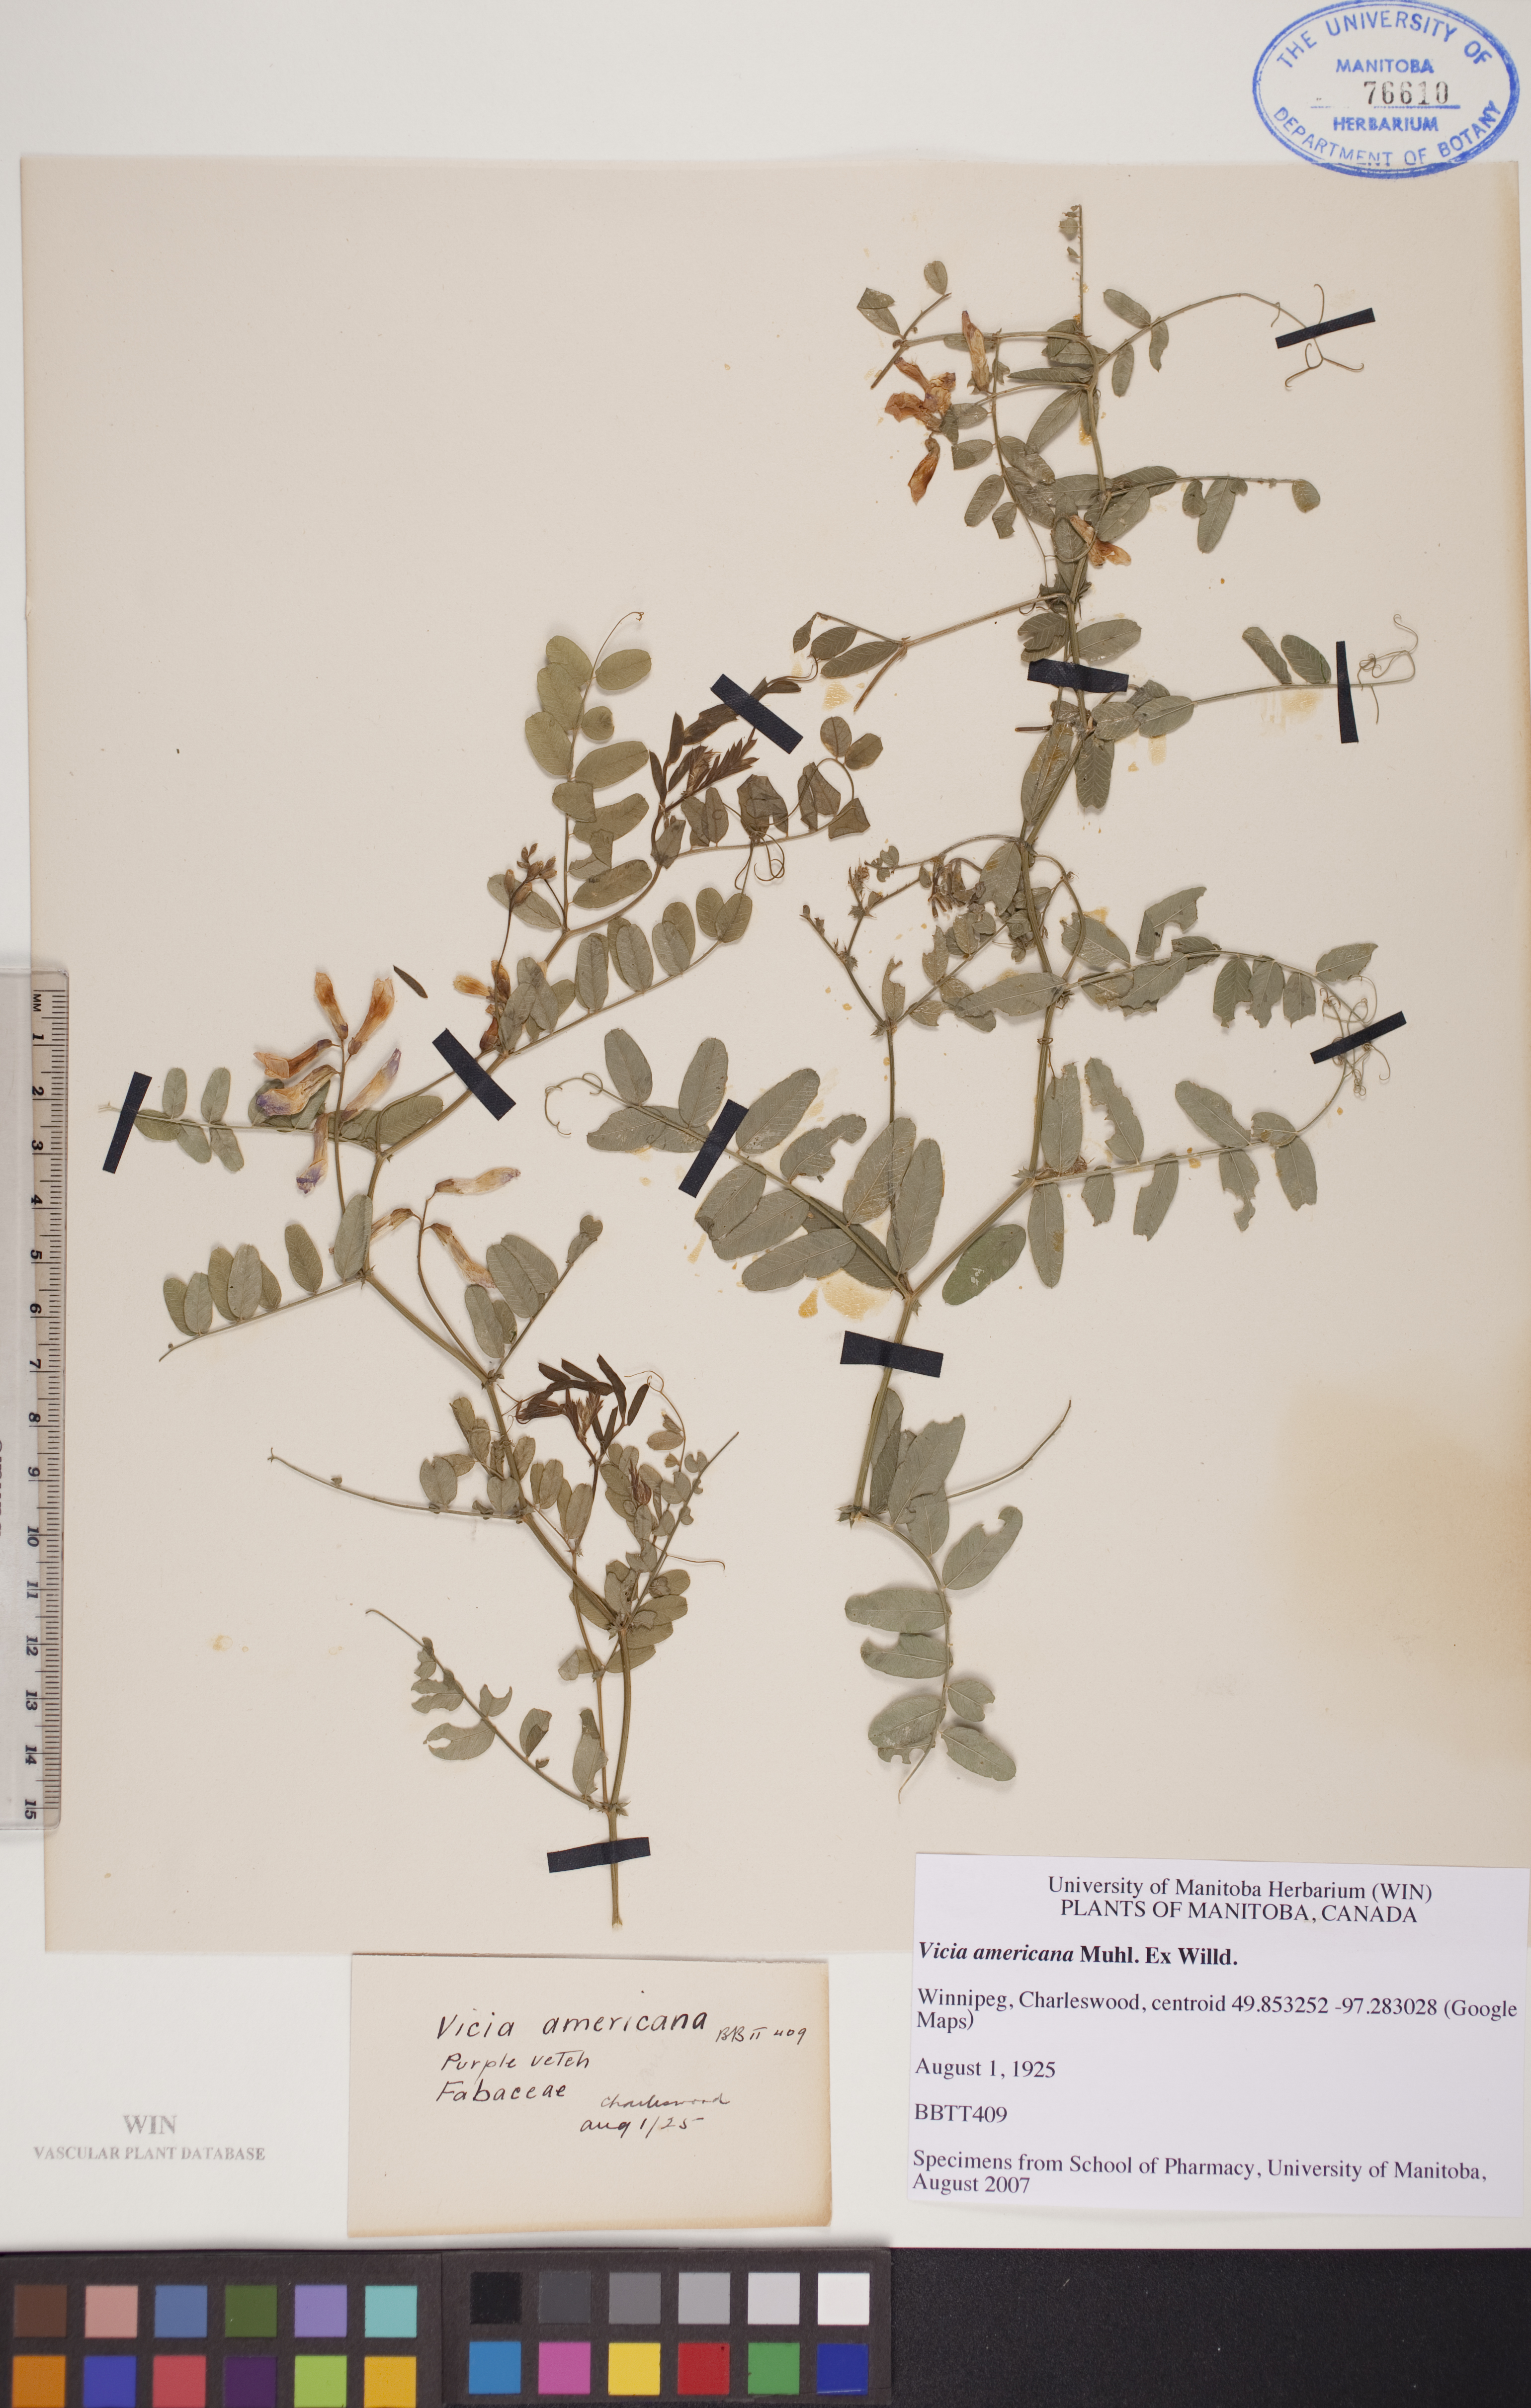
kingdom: Plantae
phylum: Tracheophyta
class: Magnoliopsida
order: Fabales
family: Fabaceae
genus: Vicia
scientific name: Vicia americana
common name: American vetch
